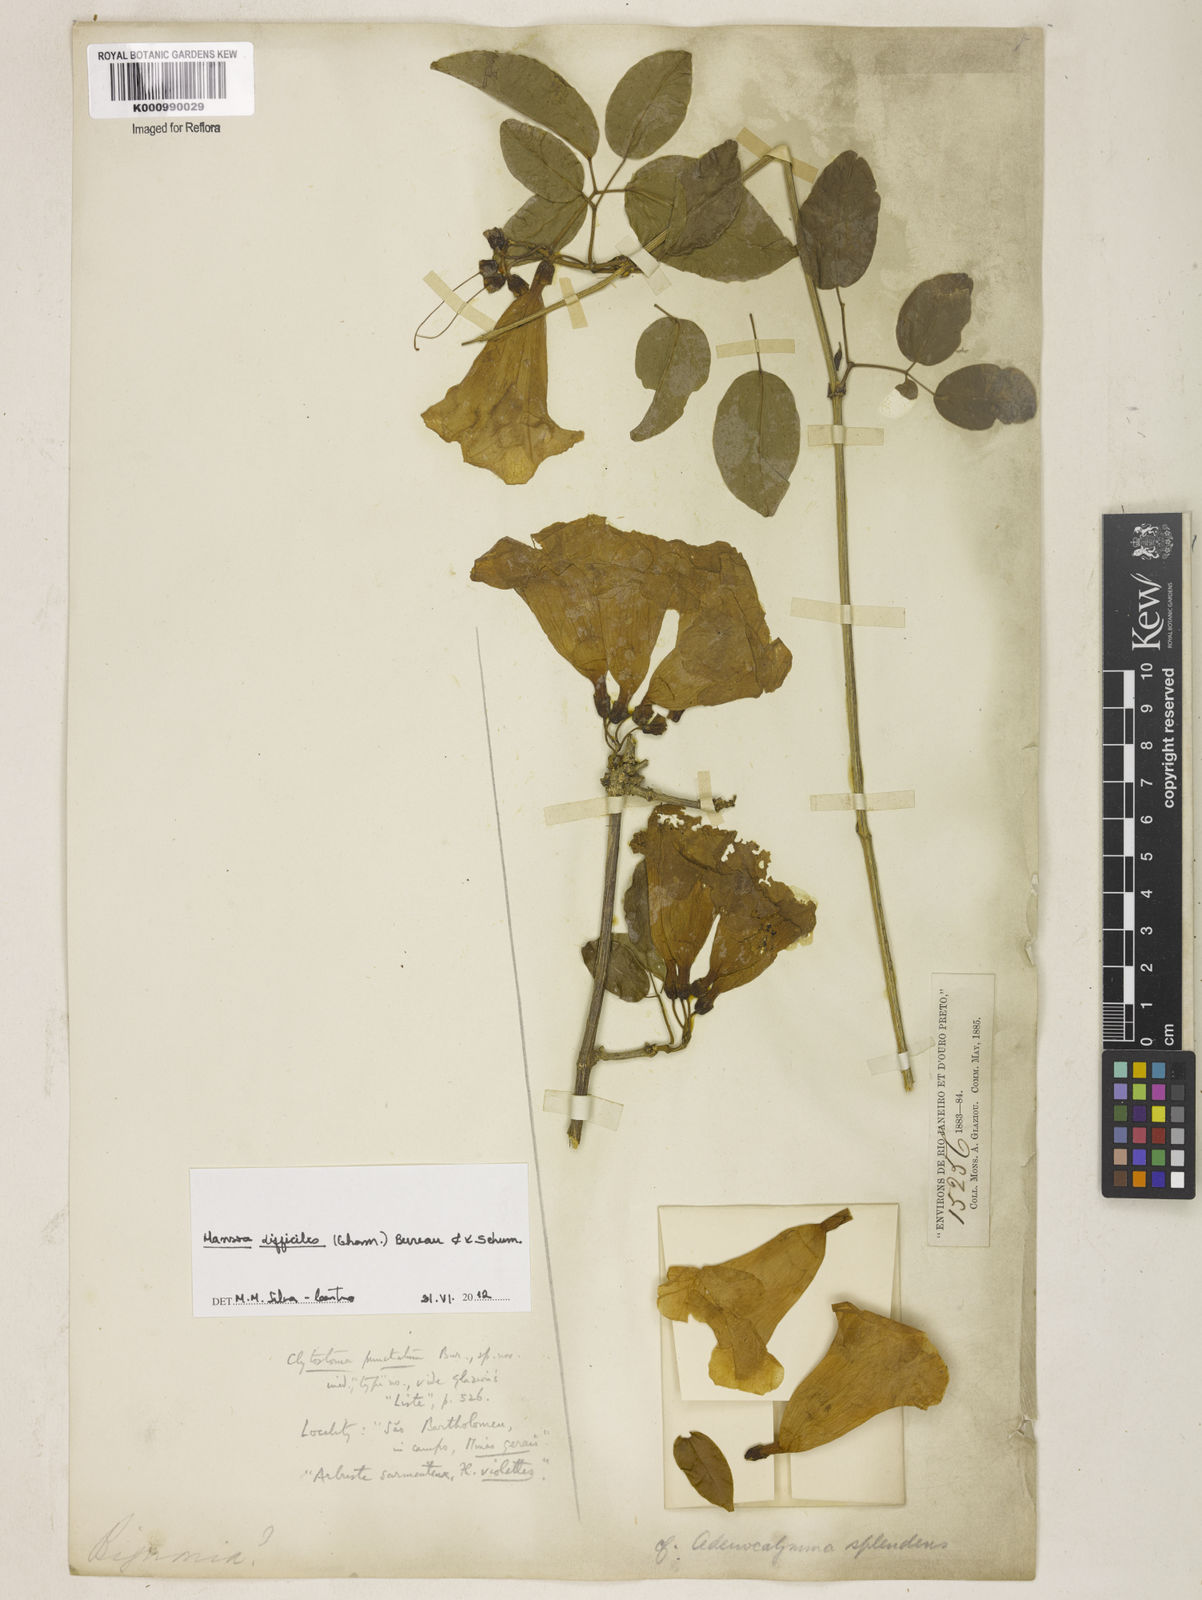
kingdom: Plantae
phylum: Tracheophyta
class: Magnoliopsida
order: Lamiales
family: Bignoniaceae
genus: Mansoa
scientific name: Mansoa difficilis
